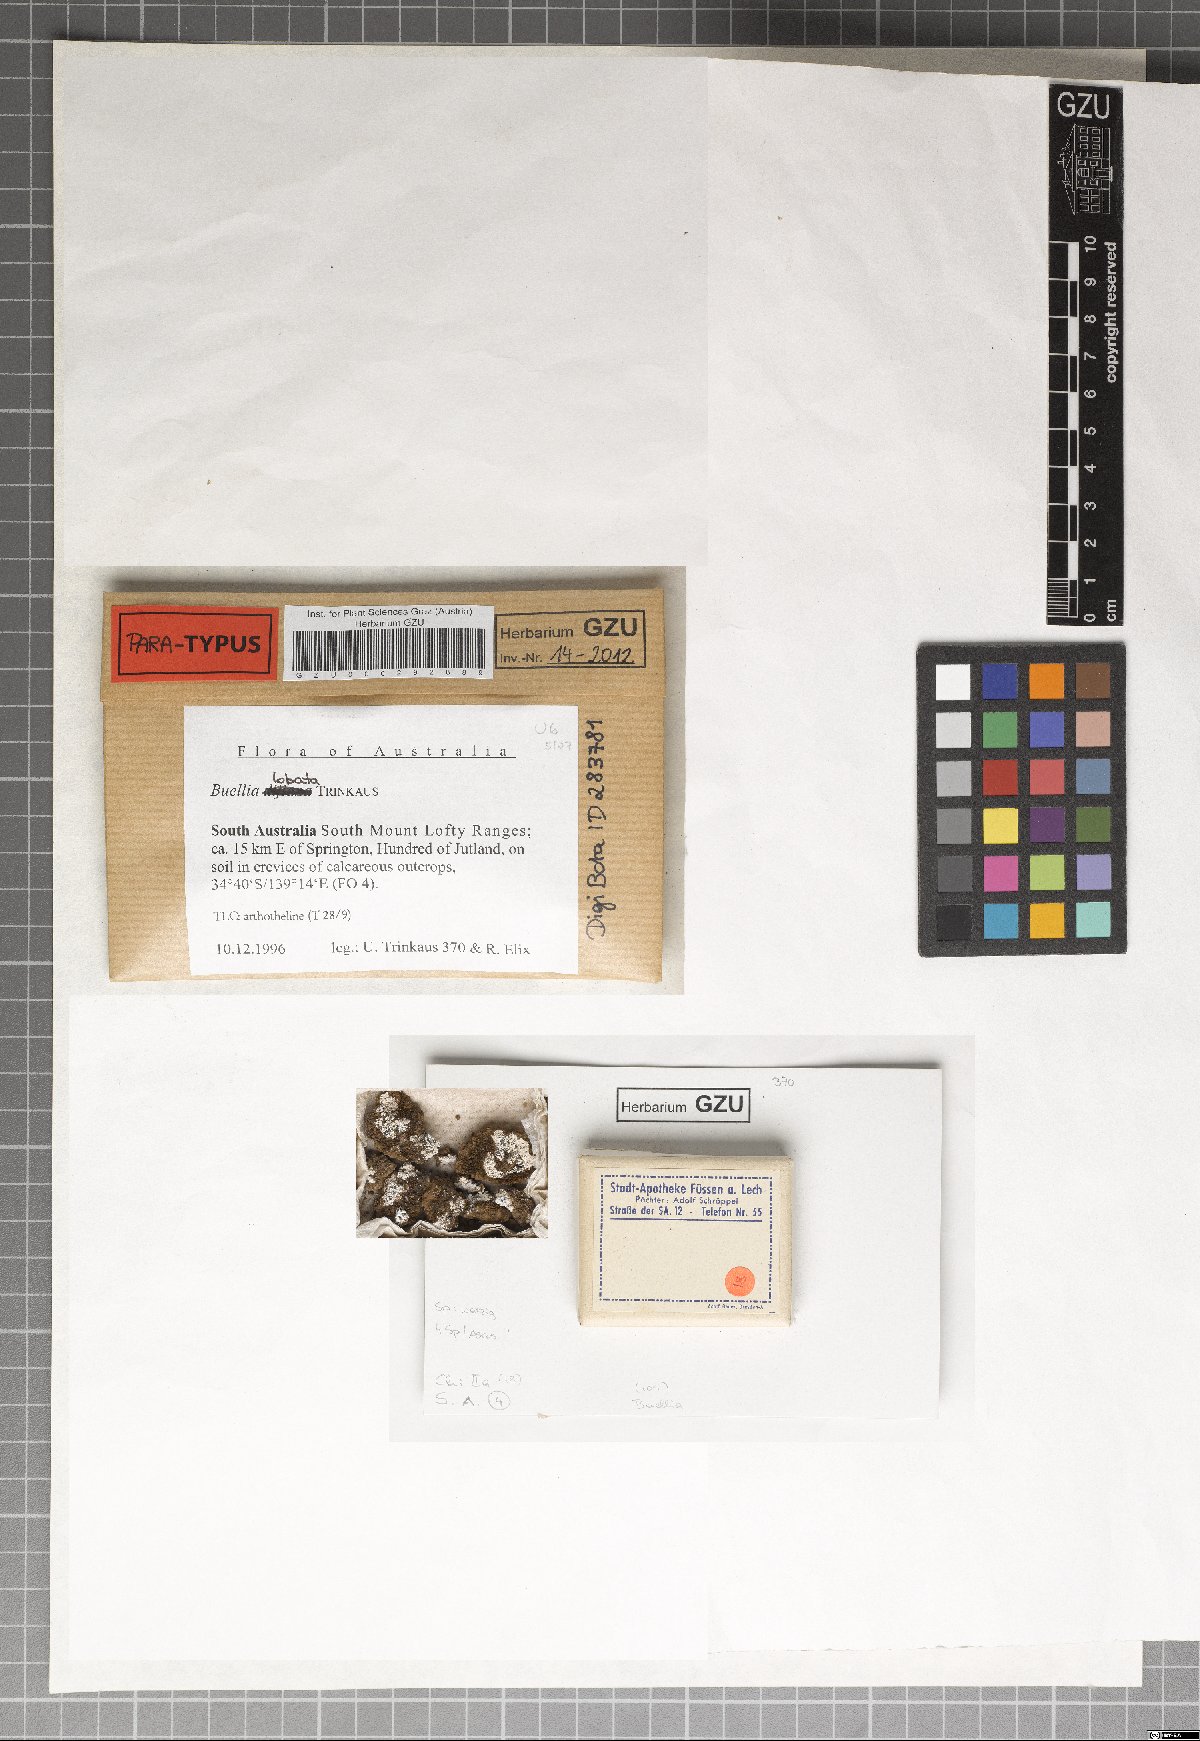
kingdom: Fungi
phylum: Ascomycota
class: Lecanoromycetes
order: Caliciales
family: Caliciaceae
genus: Buellia
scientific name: Buellia lobata
